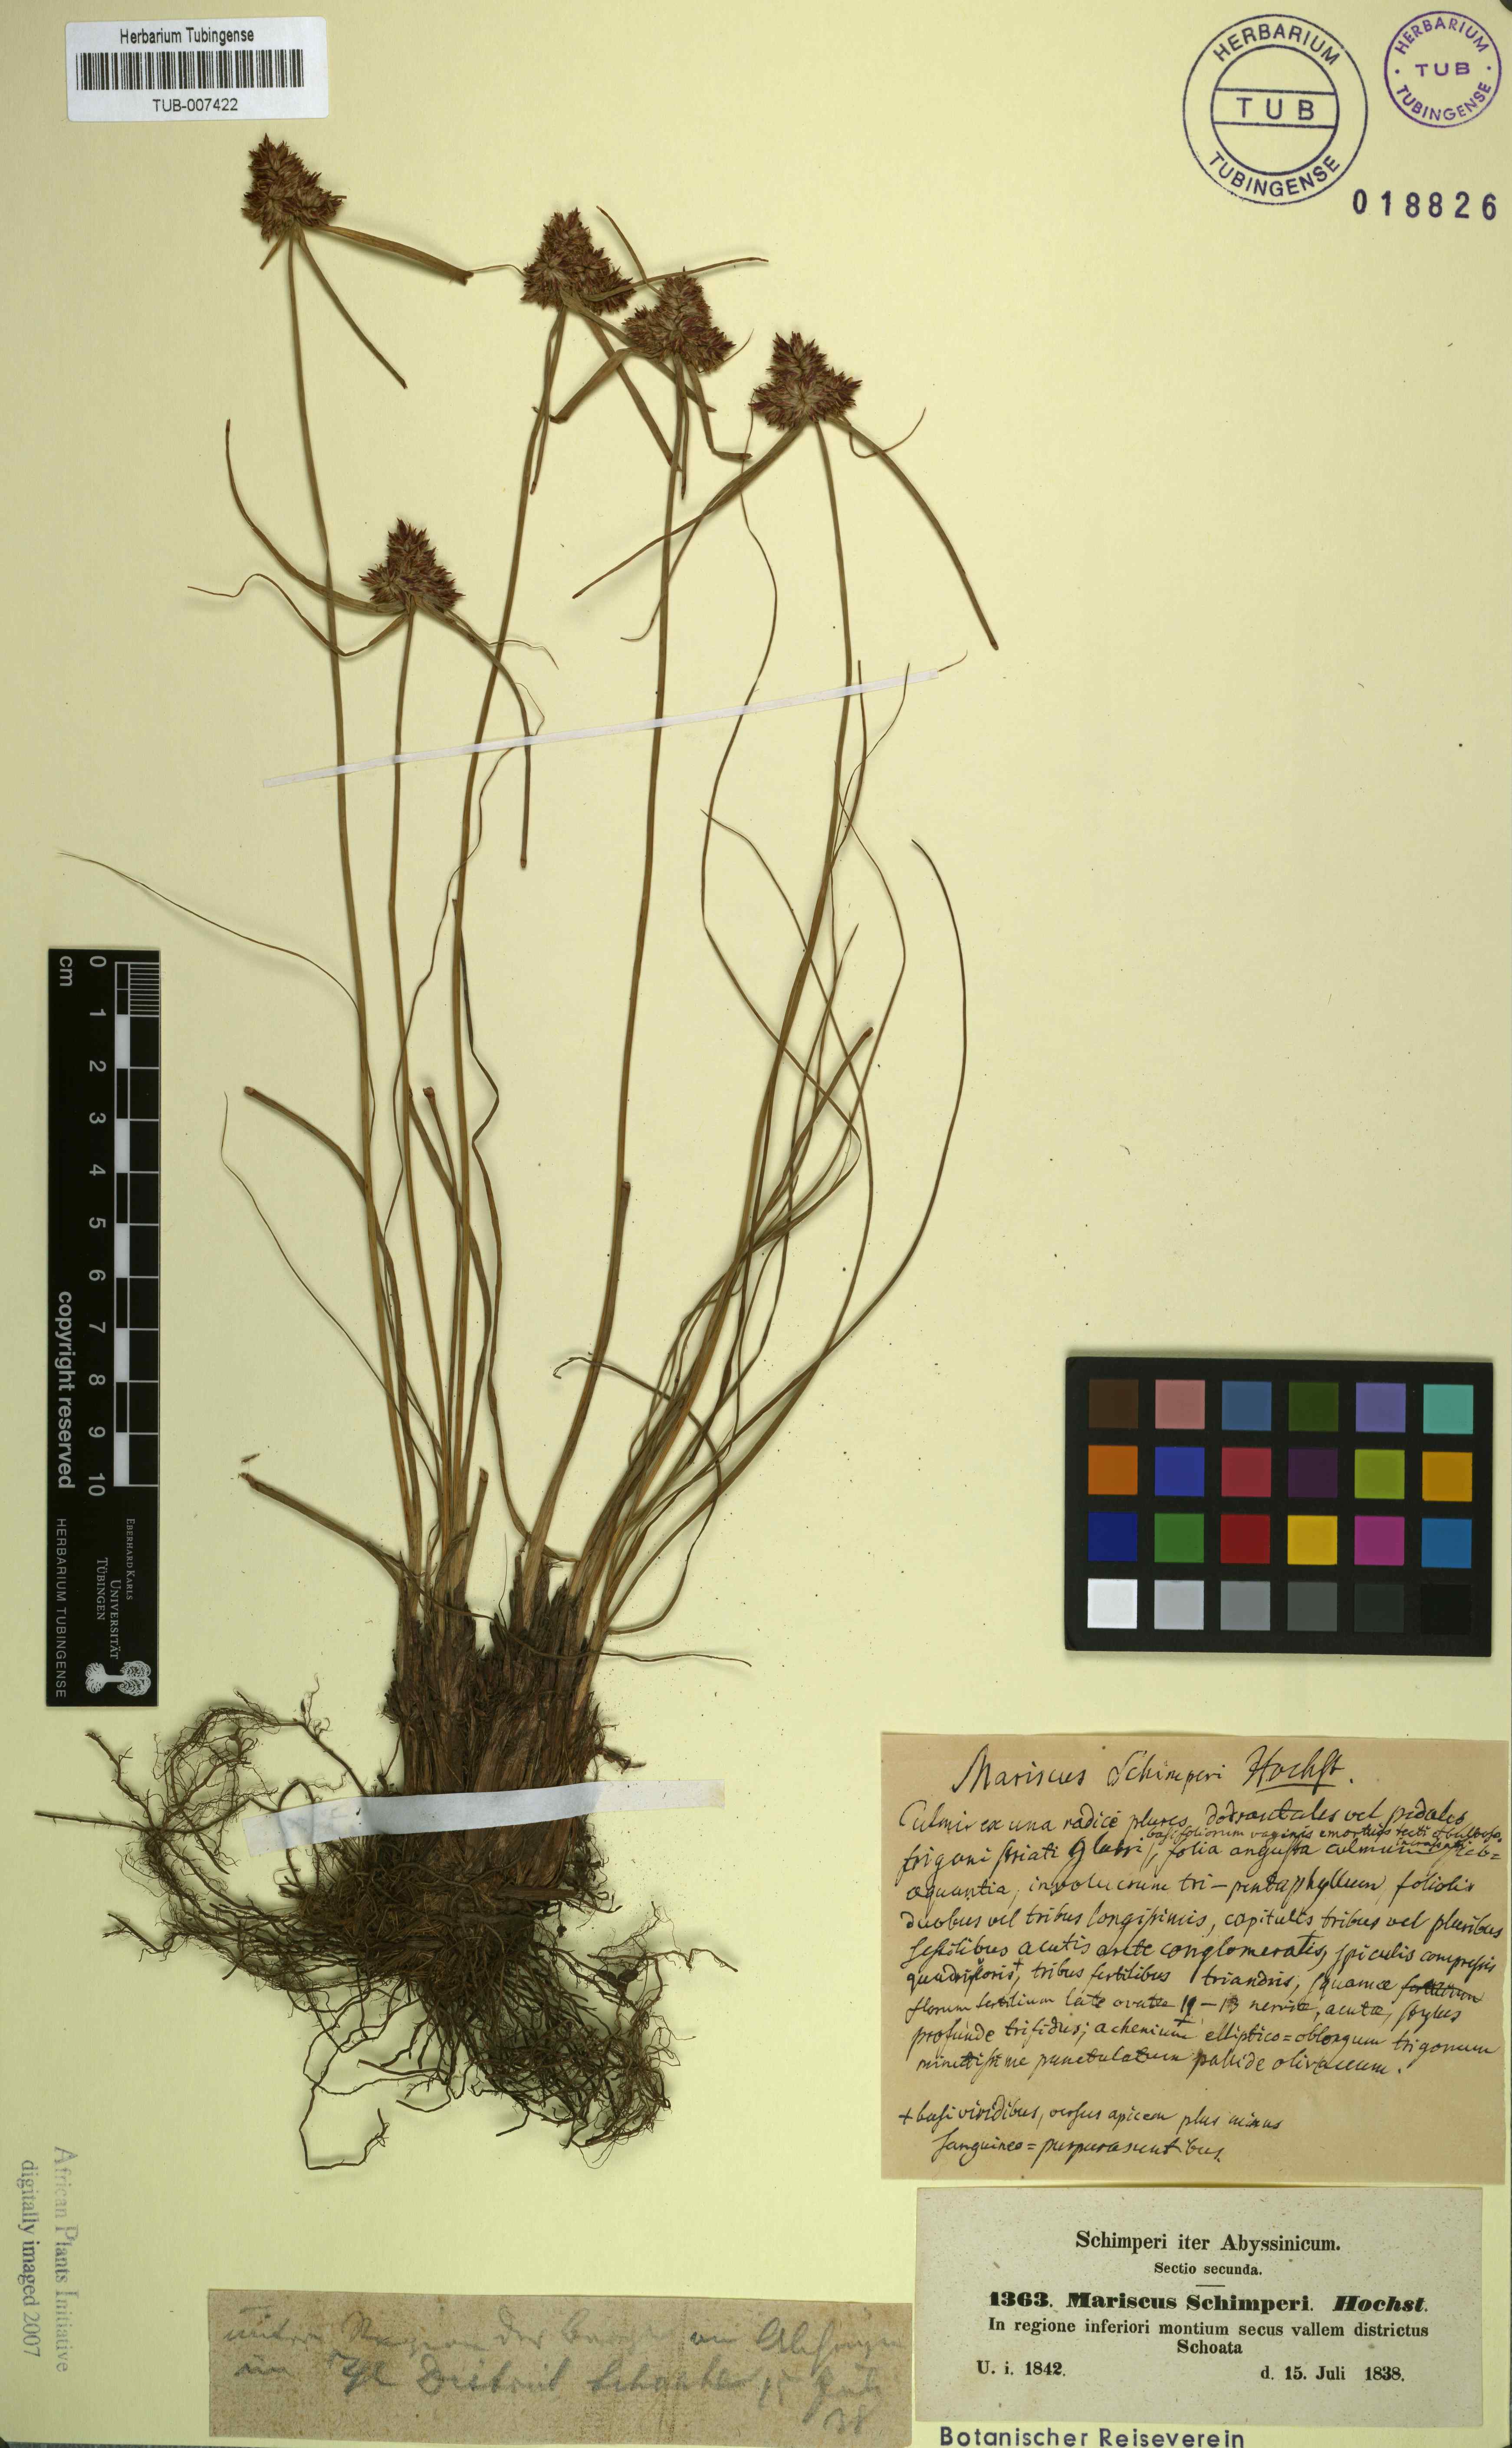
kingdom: Plantae
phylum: Tracheophyta
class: Liliopsida
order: Poales
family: Cyperaceae
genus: Cladium
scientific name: Cladium Mariscus schimperi
